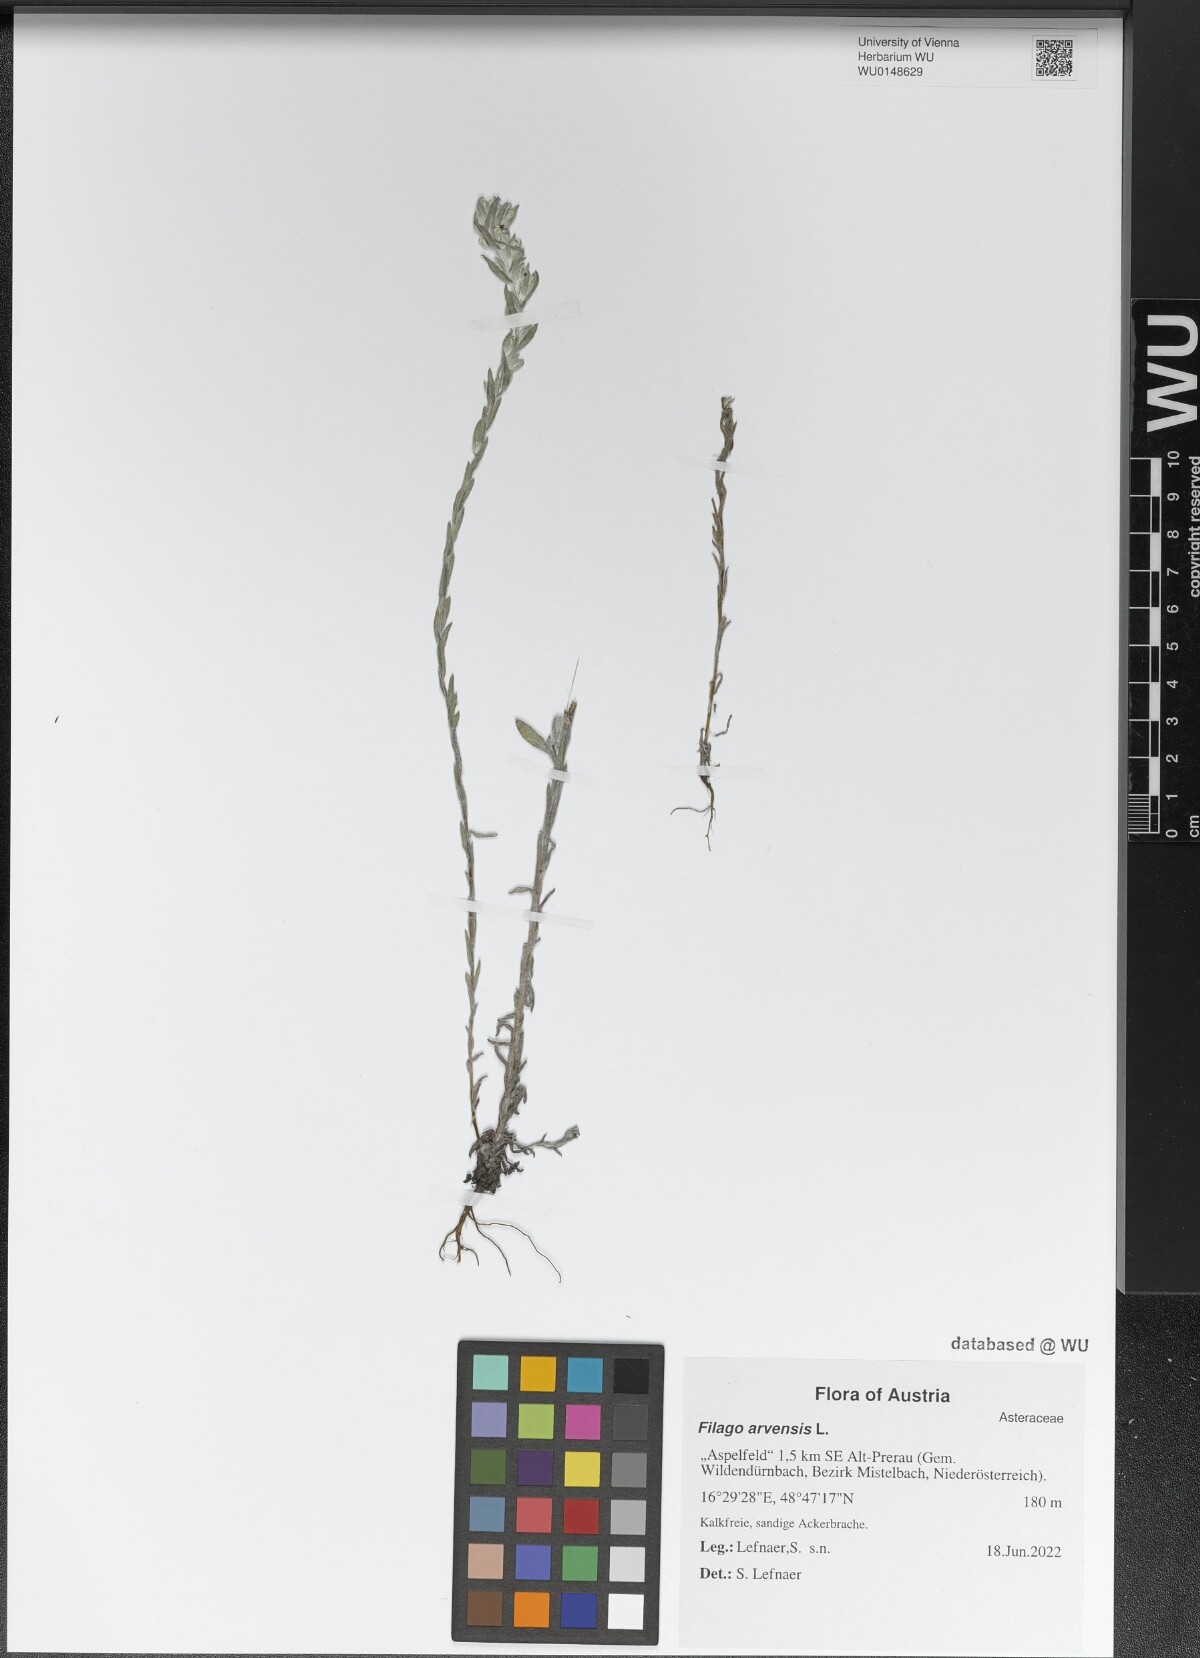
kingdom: Plantae
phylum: Tracheophyta
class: Magnoliopsida
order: Asterales
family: Asteraceae
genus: Filago
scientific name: Filago arvensis
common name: Field cudweed
